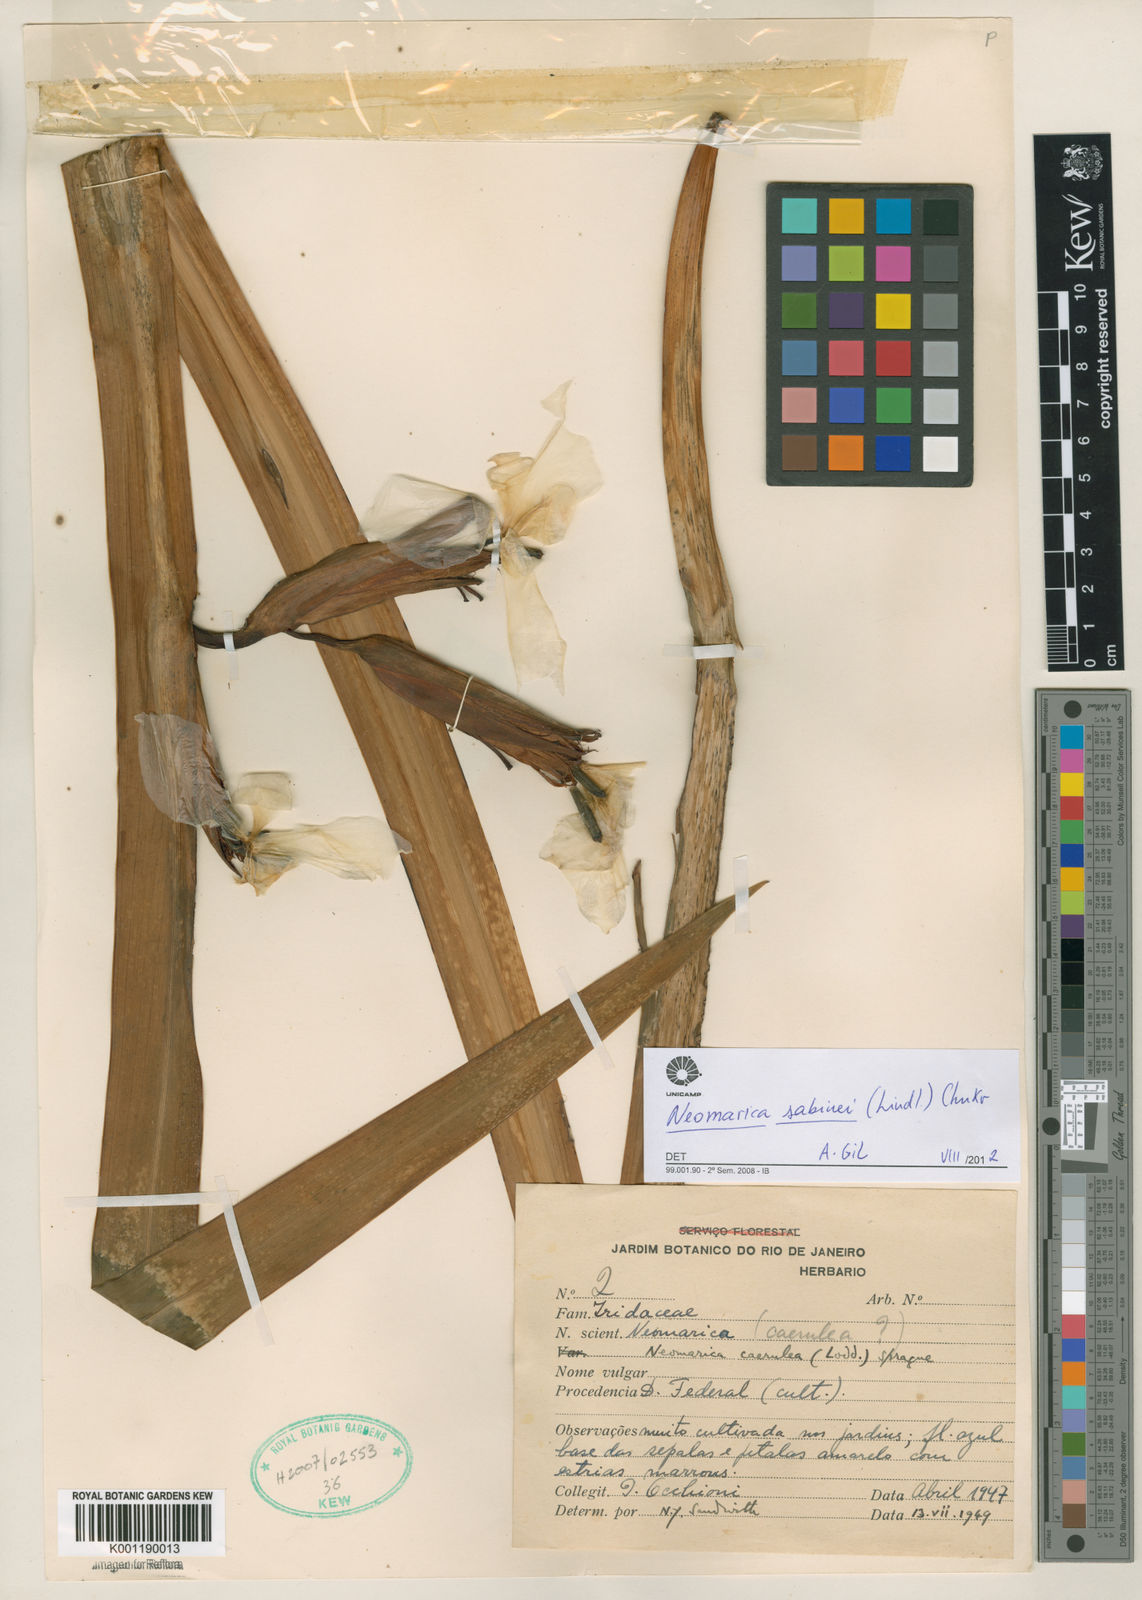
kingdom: Plantae
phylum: Tracheophyta
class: Liliopsida
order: Asparagales
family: Iridaceae
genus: Trimezia
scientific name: Trimezia sabini
